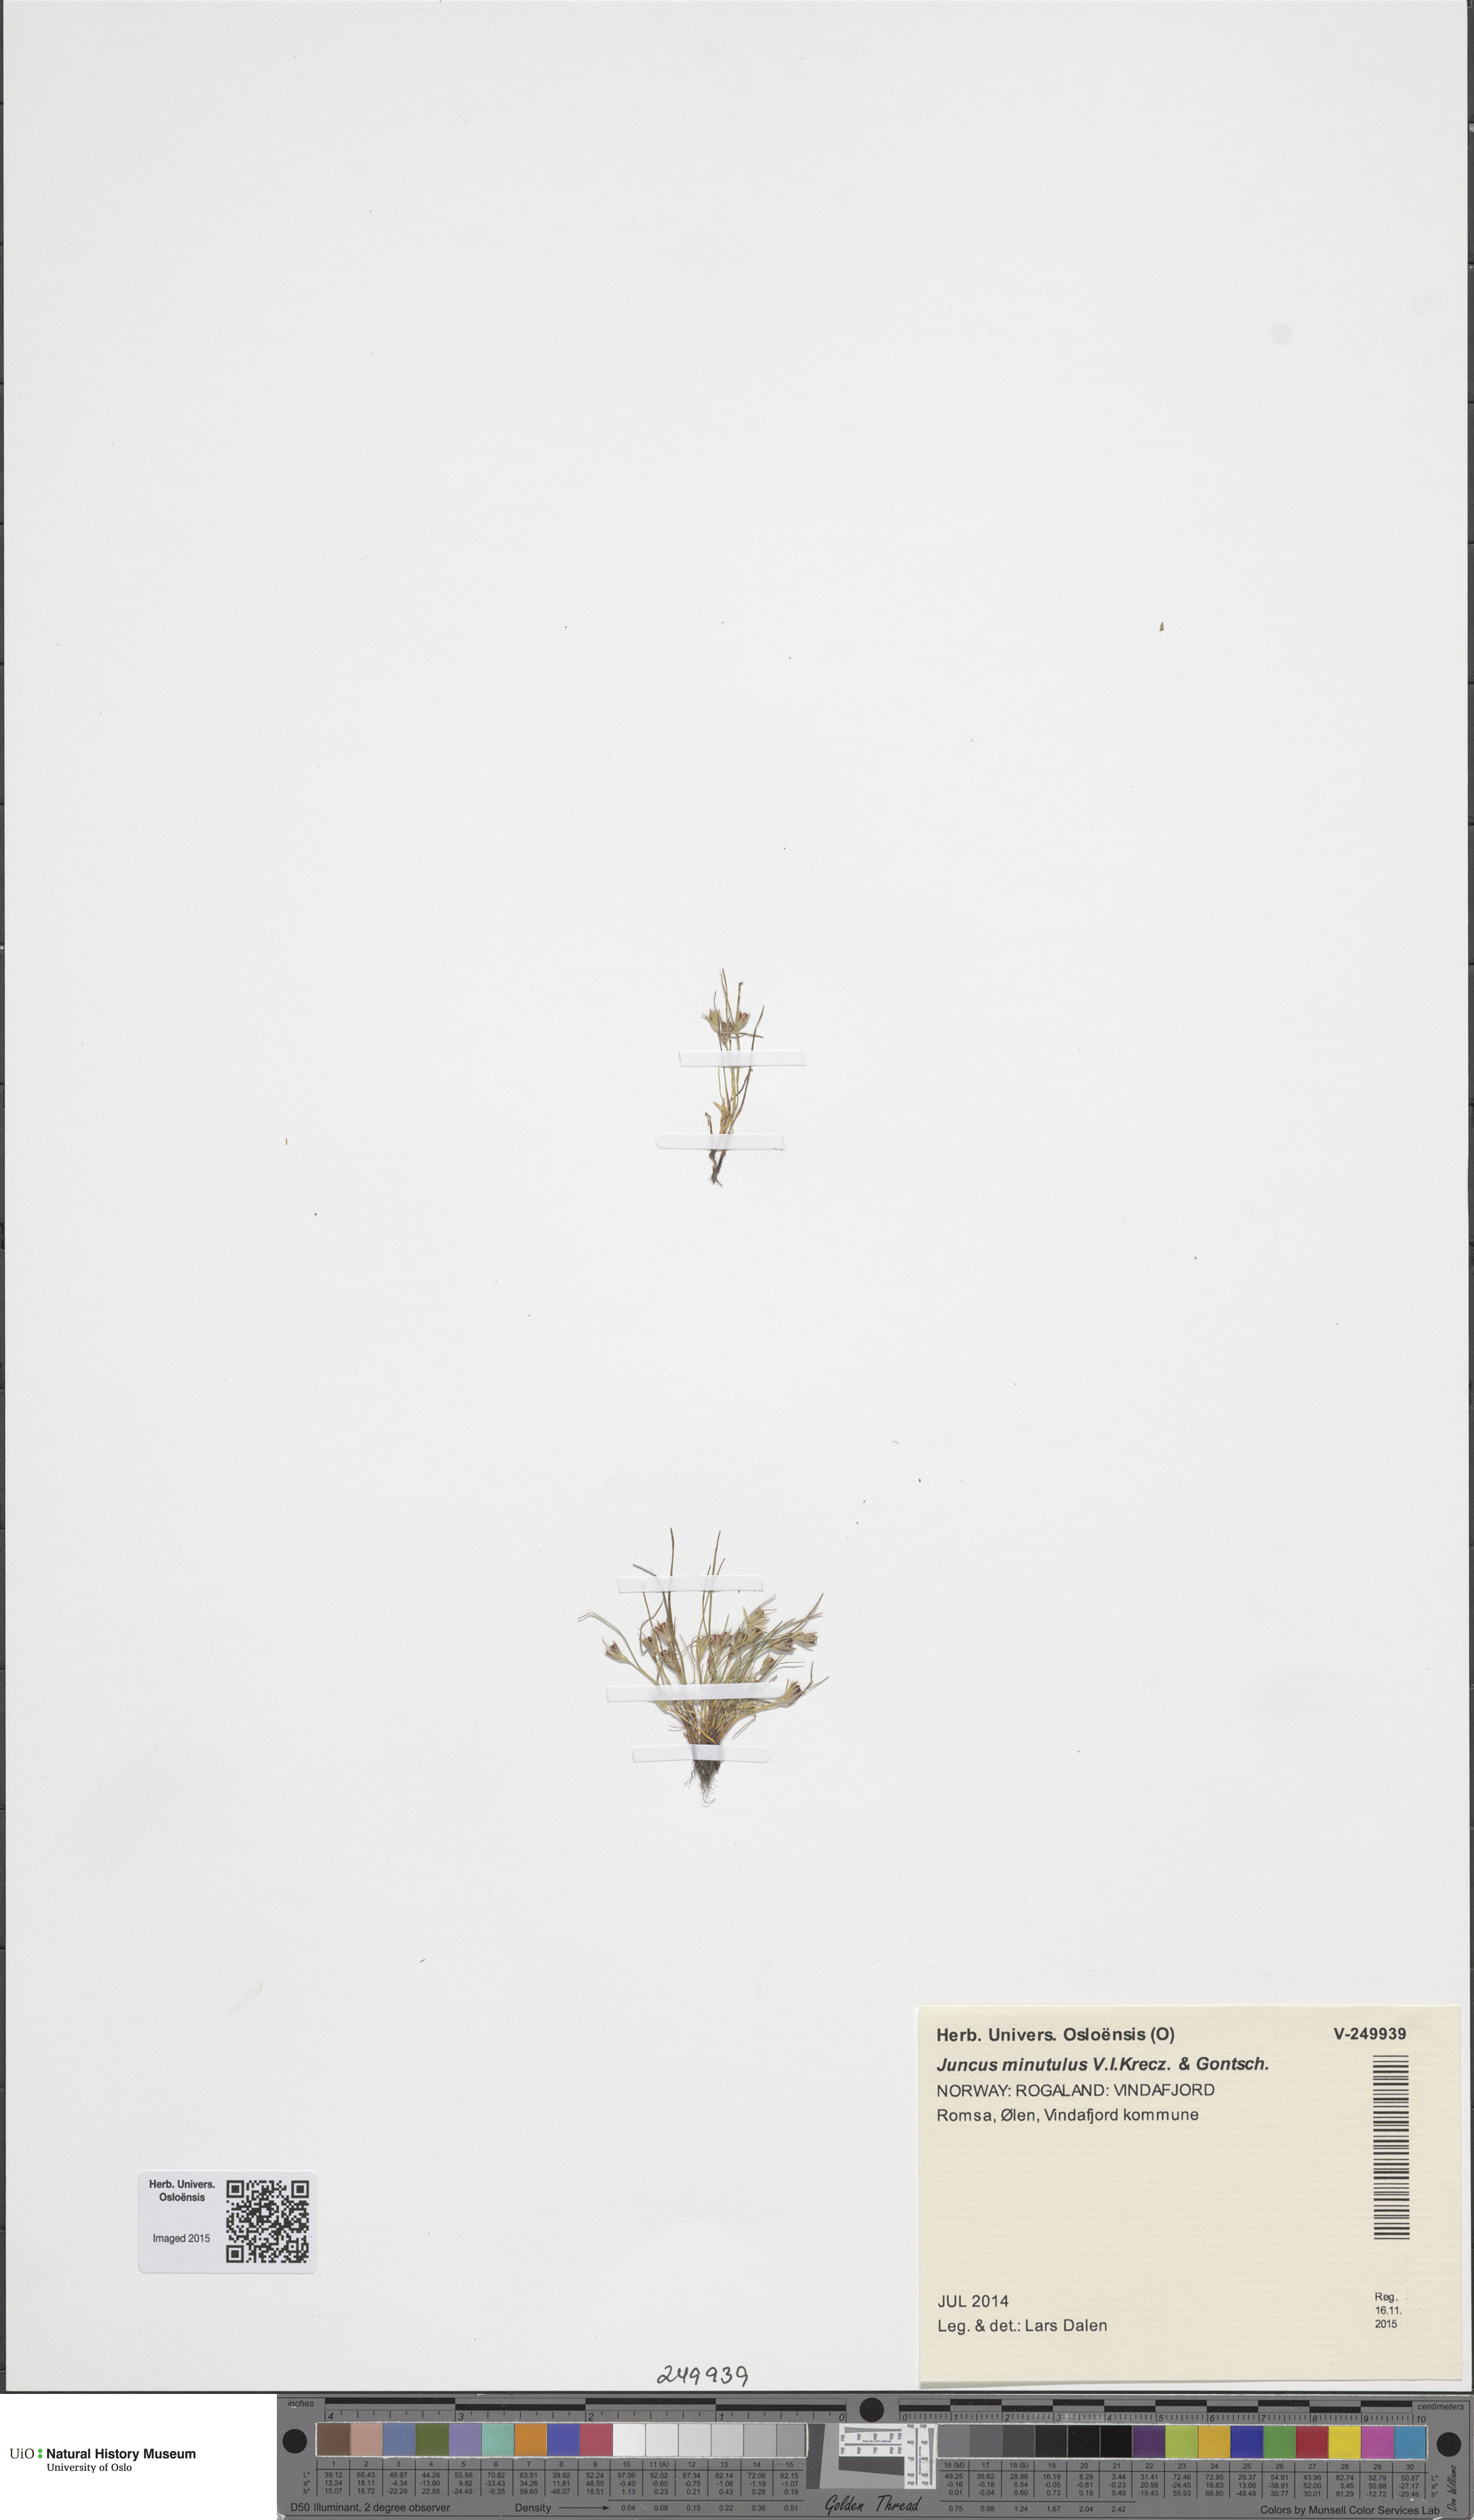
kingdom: Plantae
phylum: Tracheophyta
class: Liliopsida
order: Poales
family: Juncaceae
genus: Juncus
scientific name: Juncus minutulus
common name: Minute rush
